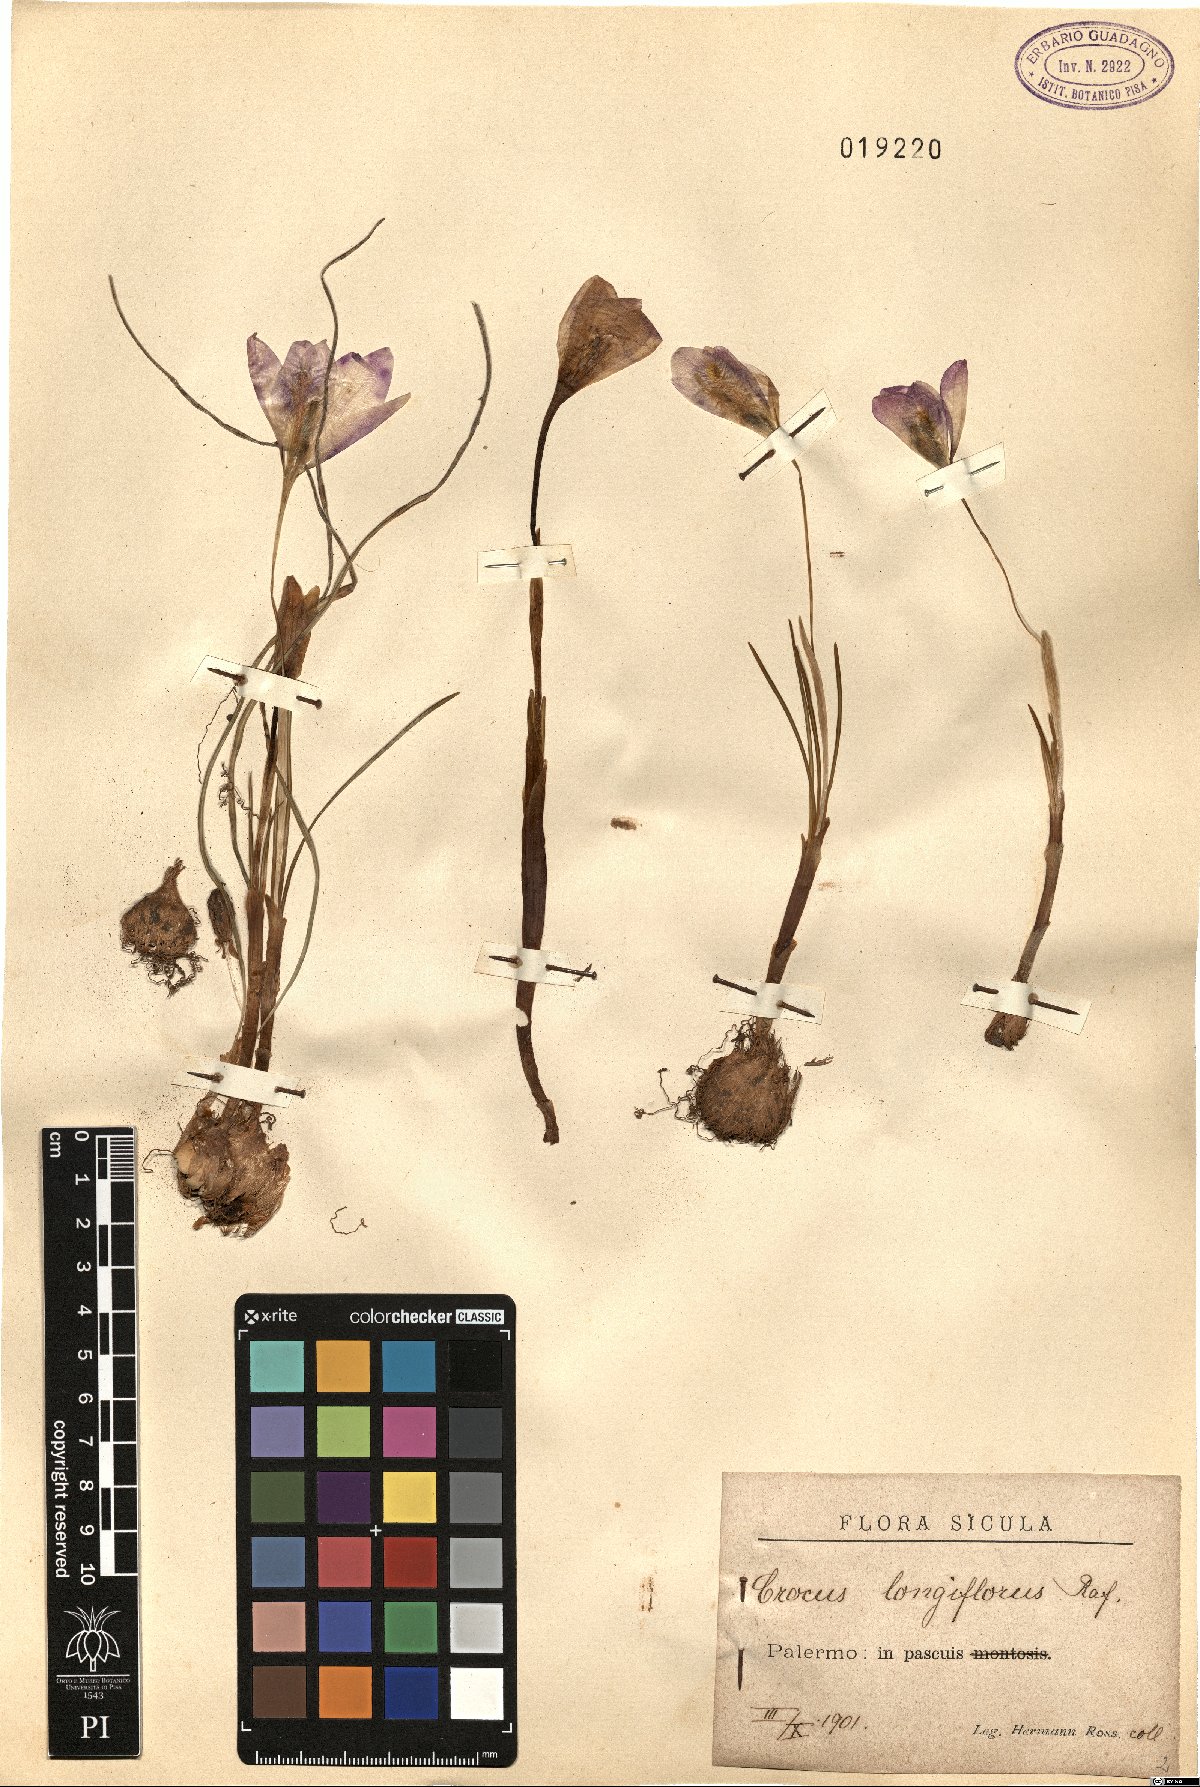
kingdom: Plantae
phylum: Tracheophyta
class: Liliopsida
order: Asparagales
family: Iridaceae
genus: Crocus
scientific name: Crocus longiflorus
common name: Italian crocus
